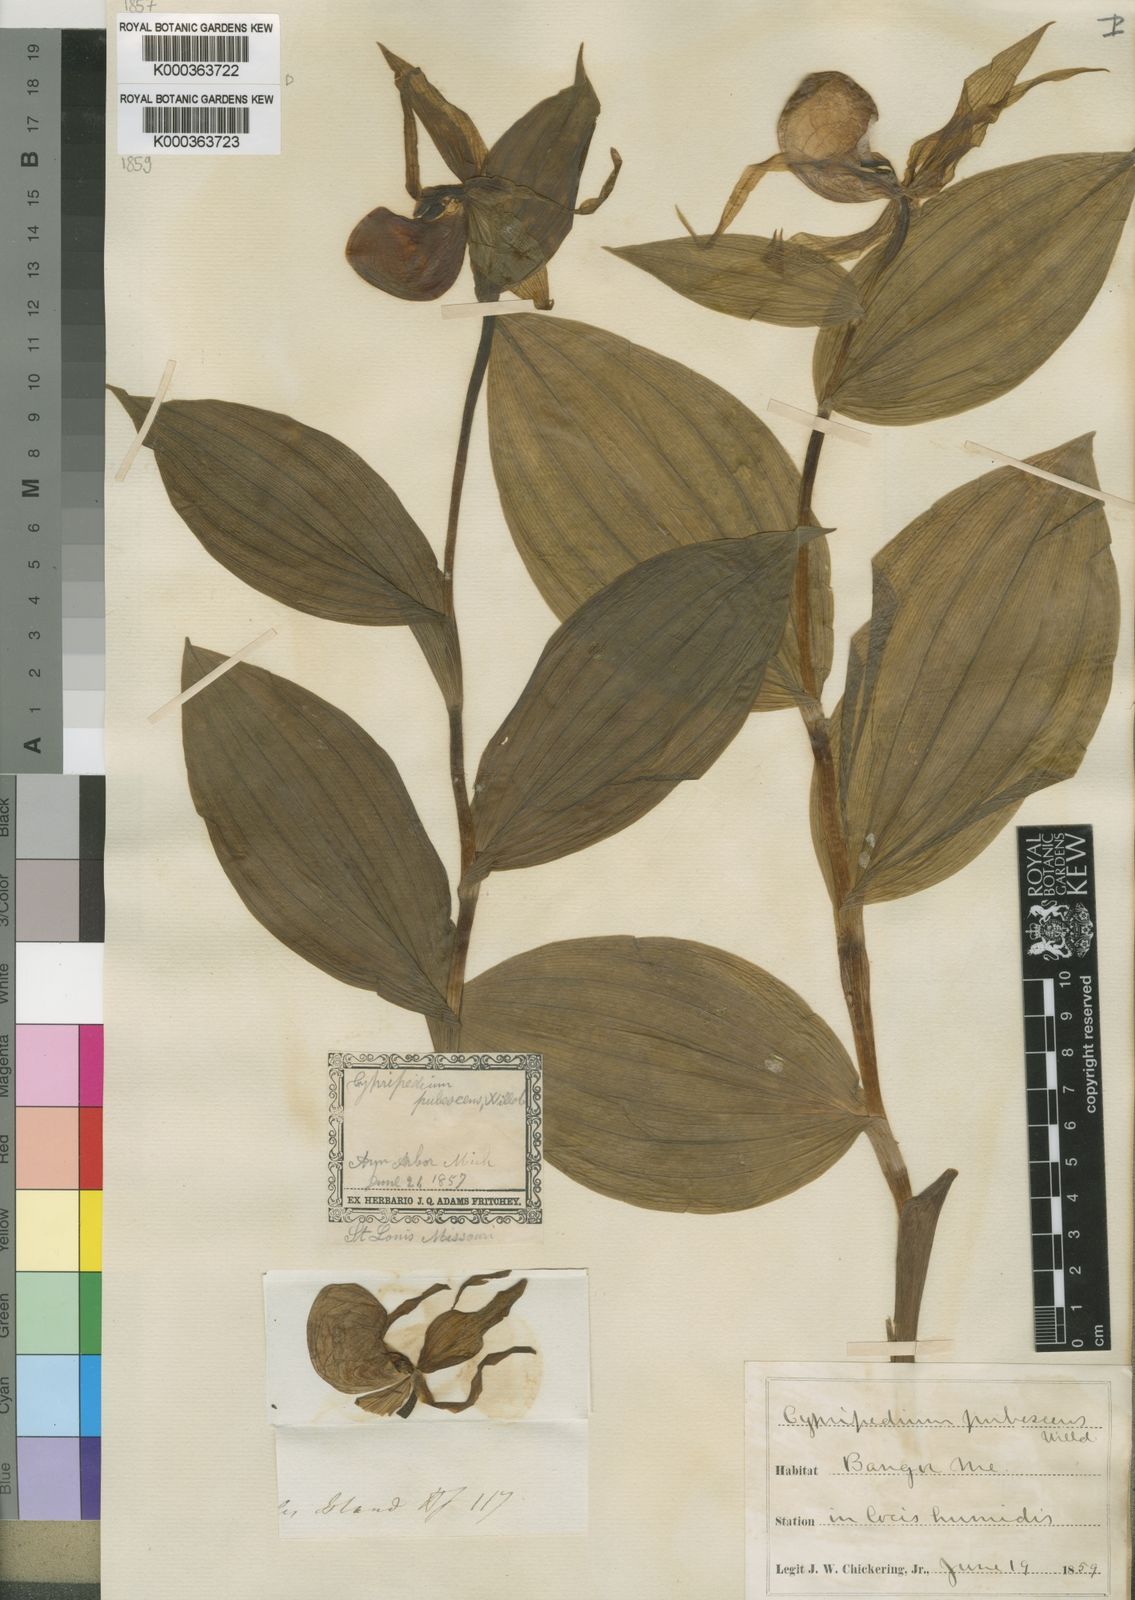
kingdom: Plantae
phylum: Tracheophyta
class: Liliopsida
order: Asparagales
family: Orchidaceae
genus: Cypripedium
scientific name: Cypripedium parviflorum
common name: American yellow lady's-slipper
